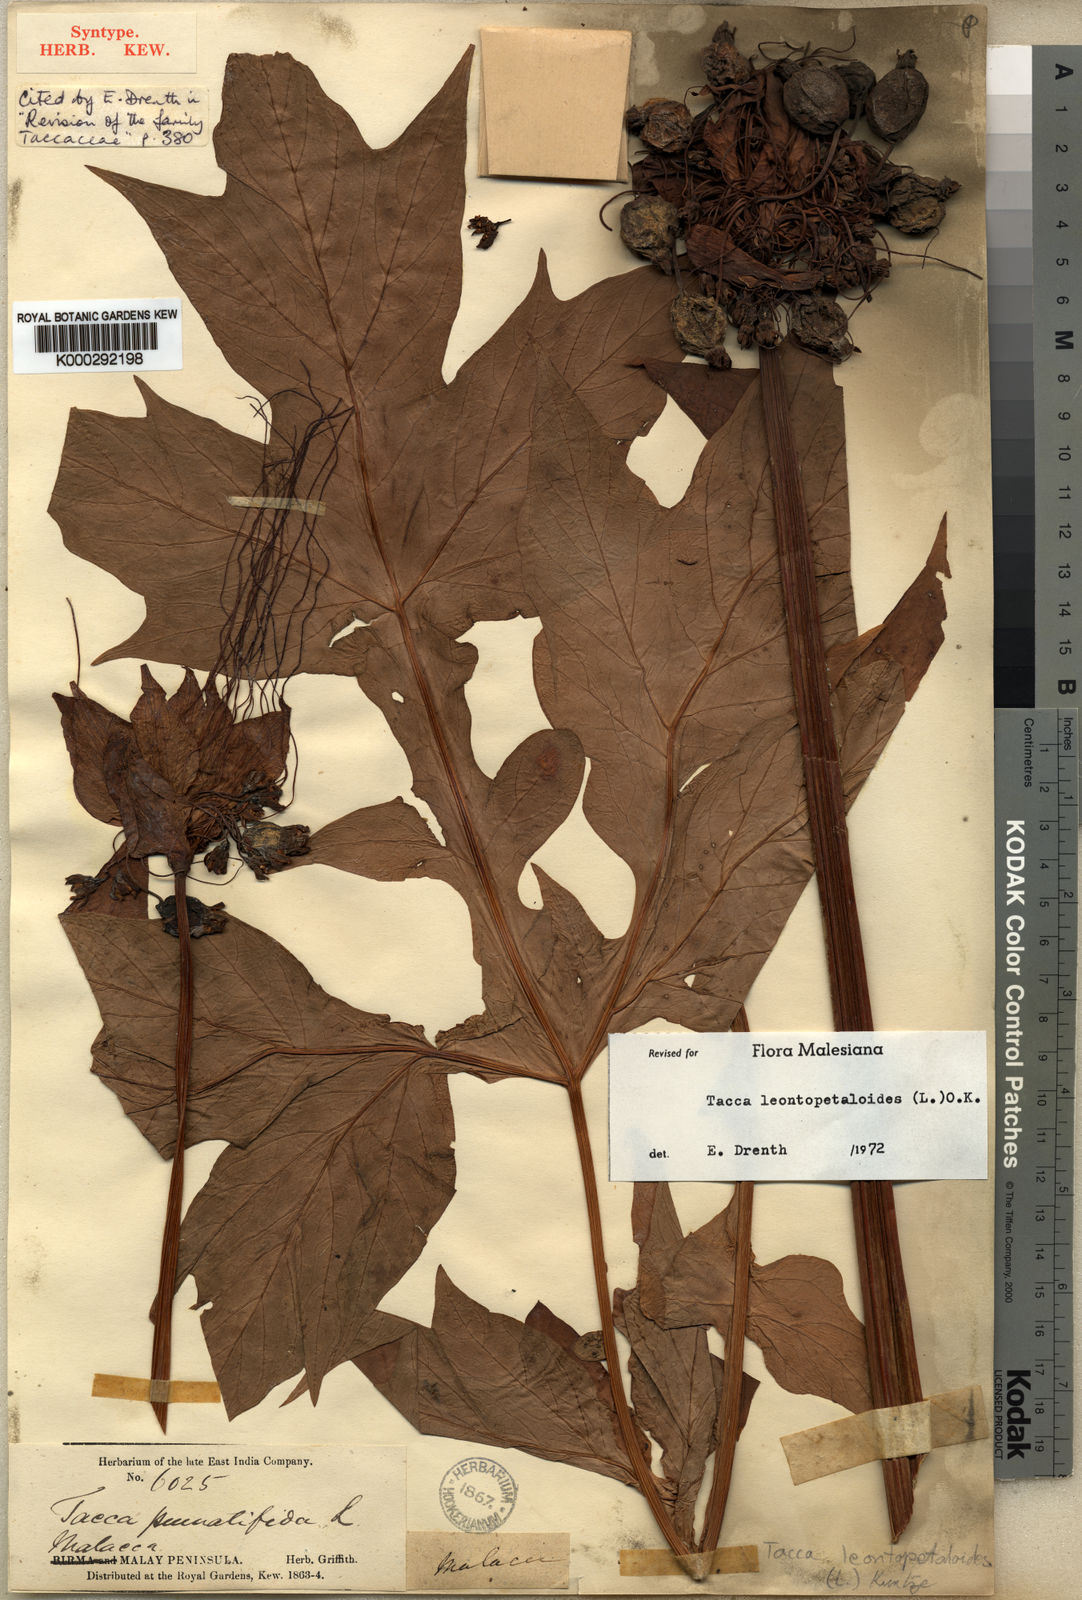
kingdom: Plantae
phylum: Tracheophyta
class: Liliopsida
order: Dioscoreales
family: Dioscoreaceae
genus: Tacca
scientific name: Tacca leontopetaloides
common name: Arrowroot
